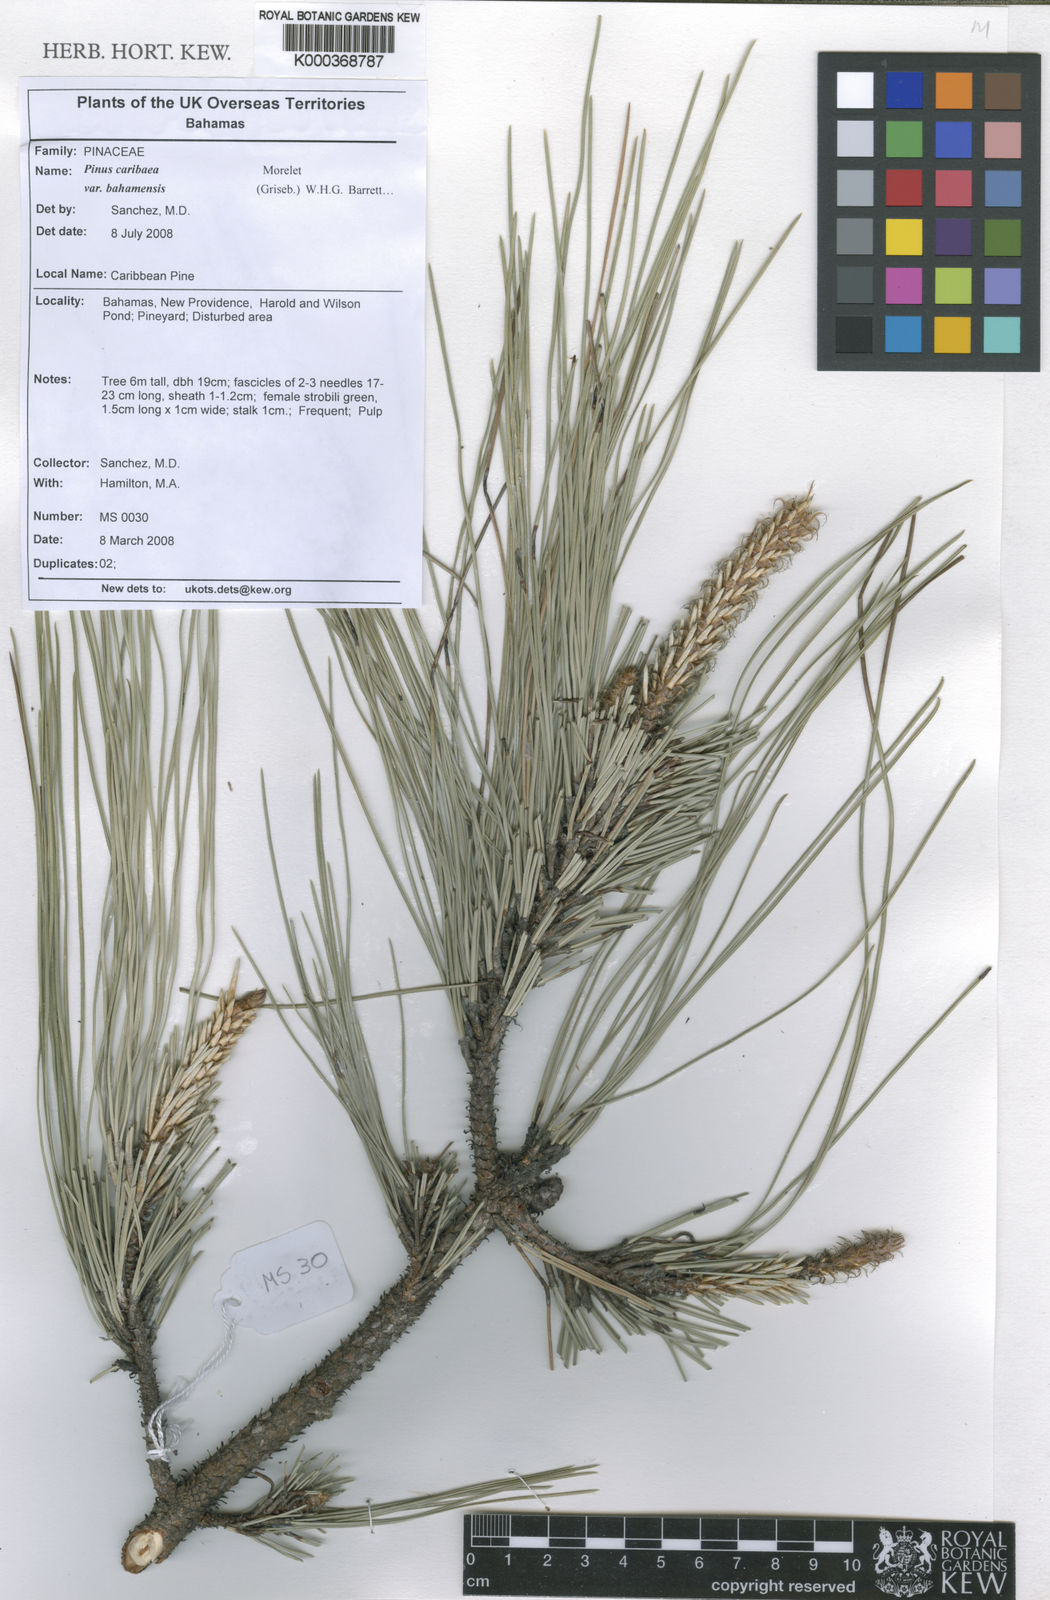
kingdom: Plantae
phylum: Tracheophyta
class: Pinopsida
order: Pinales
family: Pinaceae
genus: Pinus
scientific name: Pinus caribaea
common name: Caribbean pine
